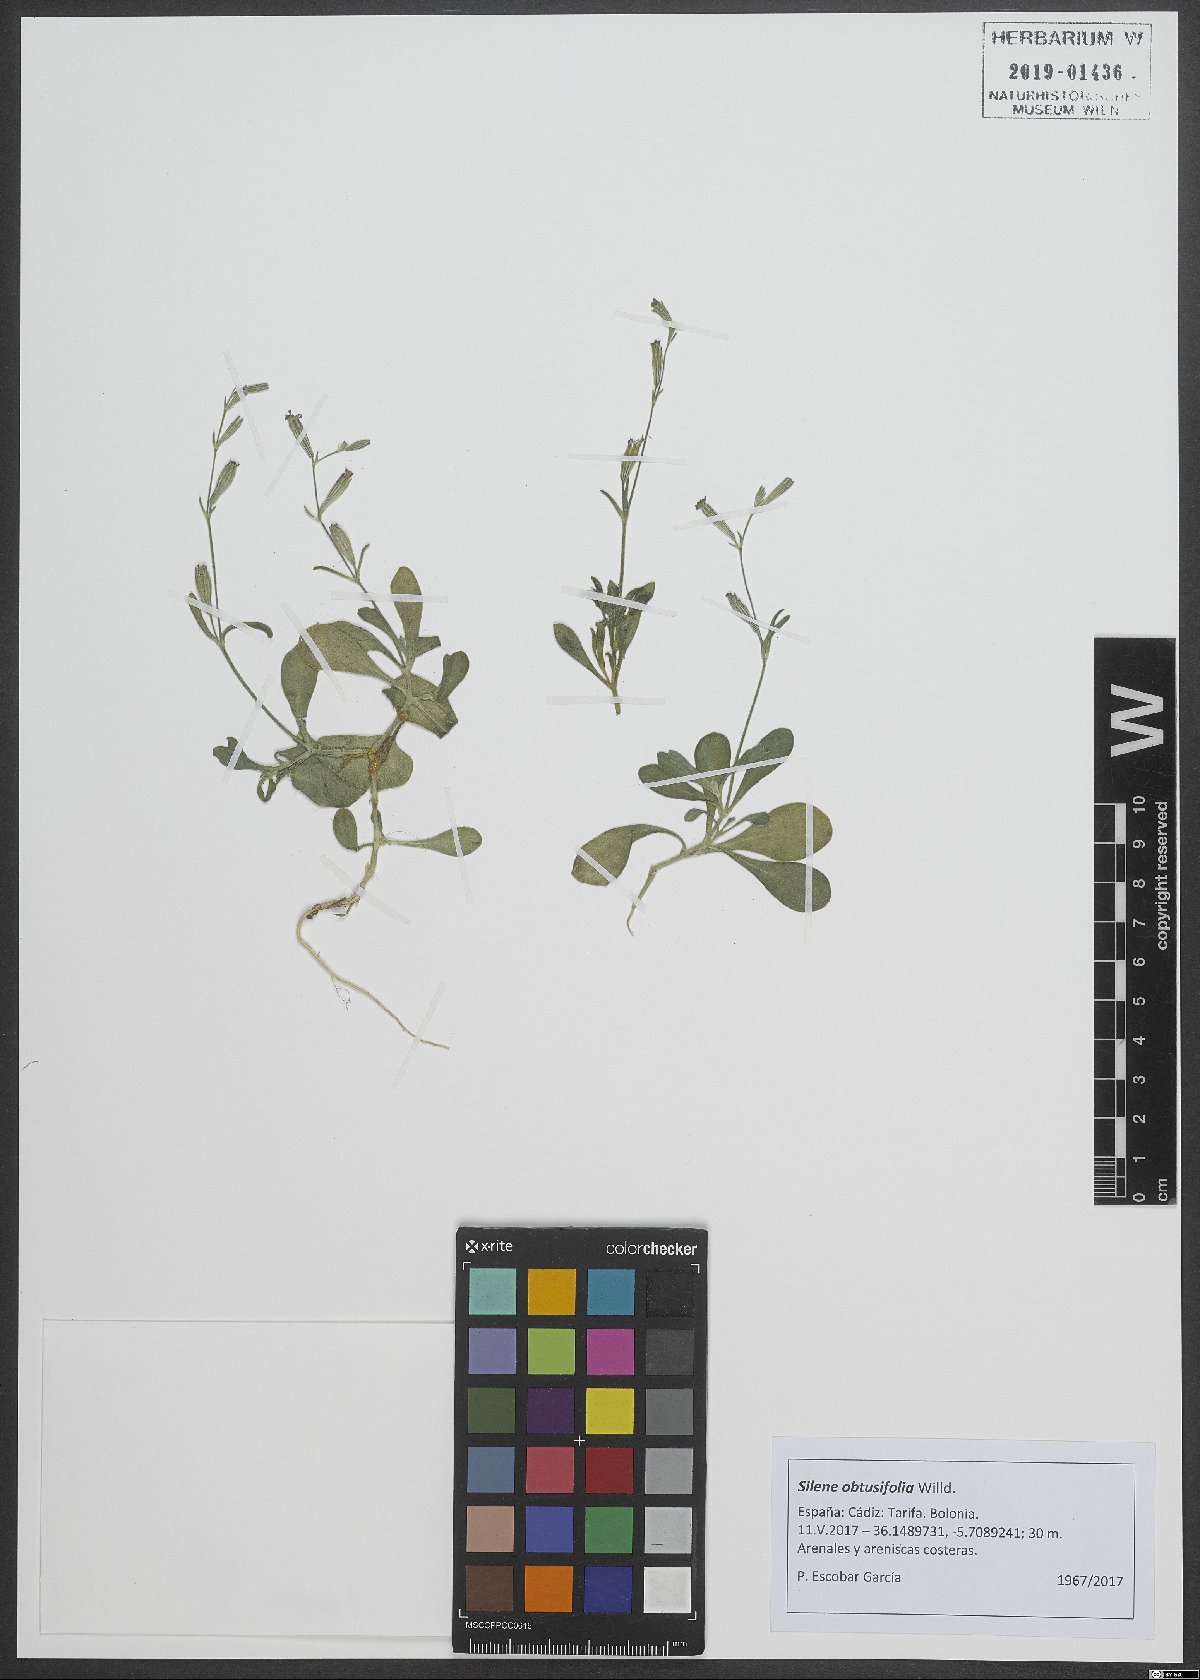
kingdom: Plantae
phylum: Tracheophyta
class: Magnoliopsida
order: Caryophyllales
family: Caryophyllaceae
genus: Silene
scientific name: Silene obtusifolia
